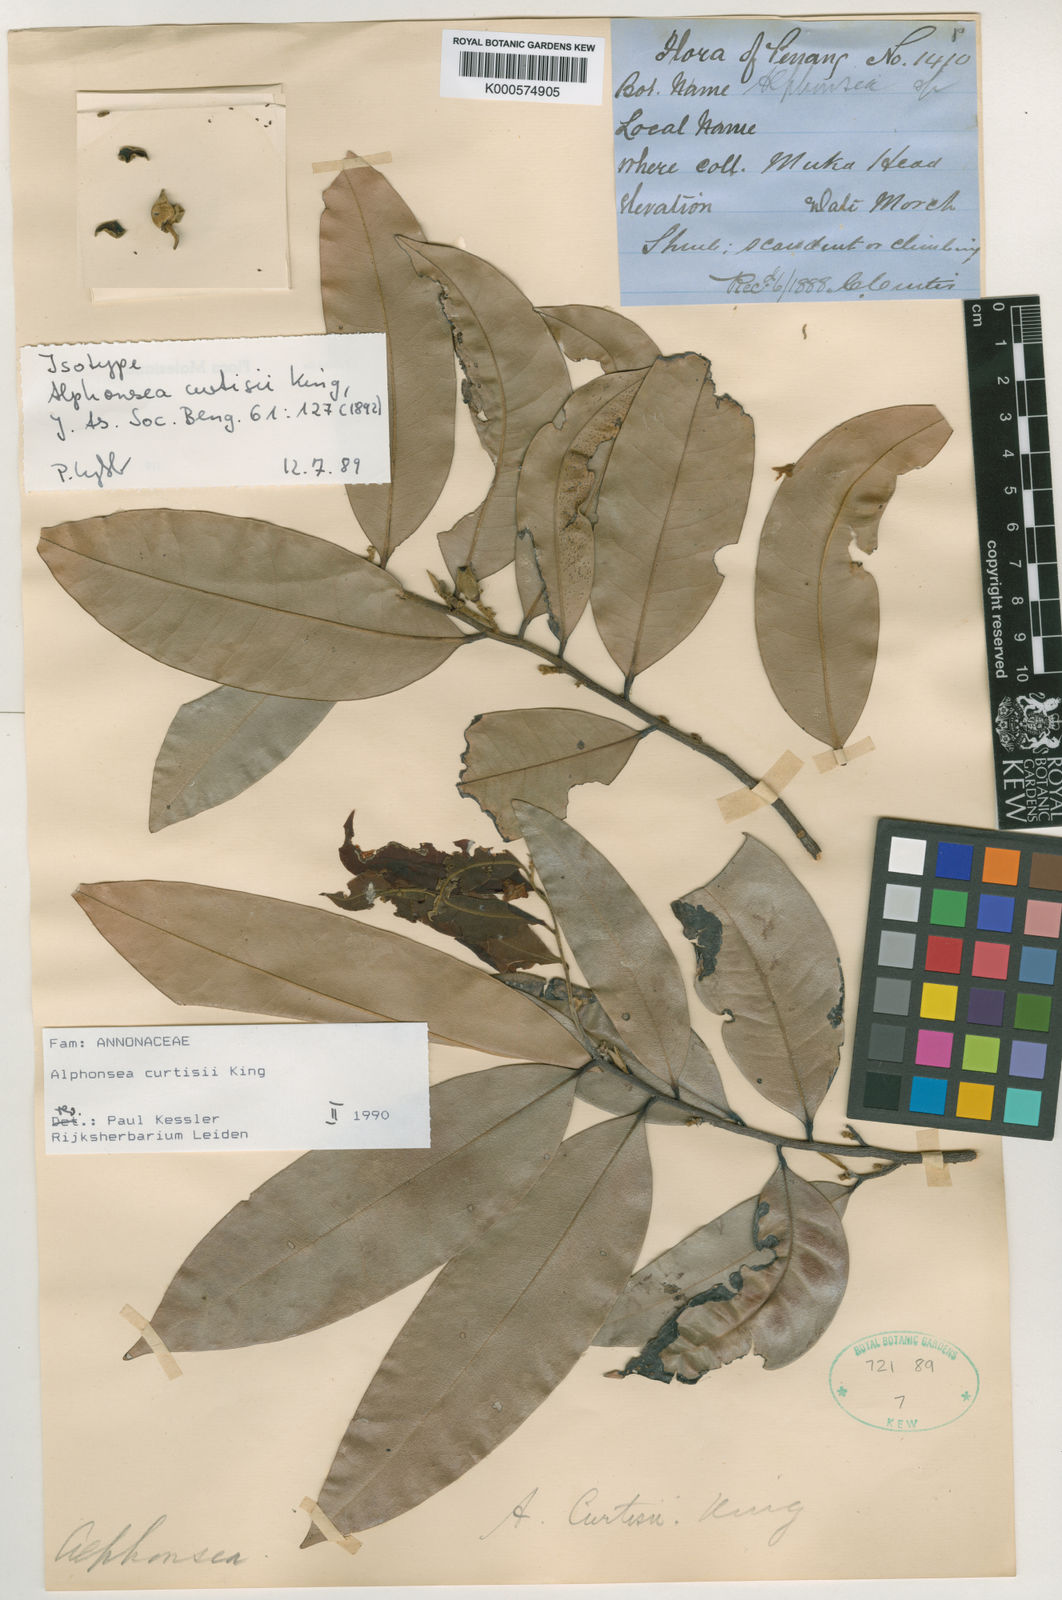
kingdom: Plantae
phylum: Tracheophyta
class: Magnoliopsida
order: Magnoliales
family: Annonaceae
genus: Alphonsea
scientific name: Alphonsea curtisii
